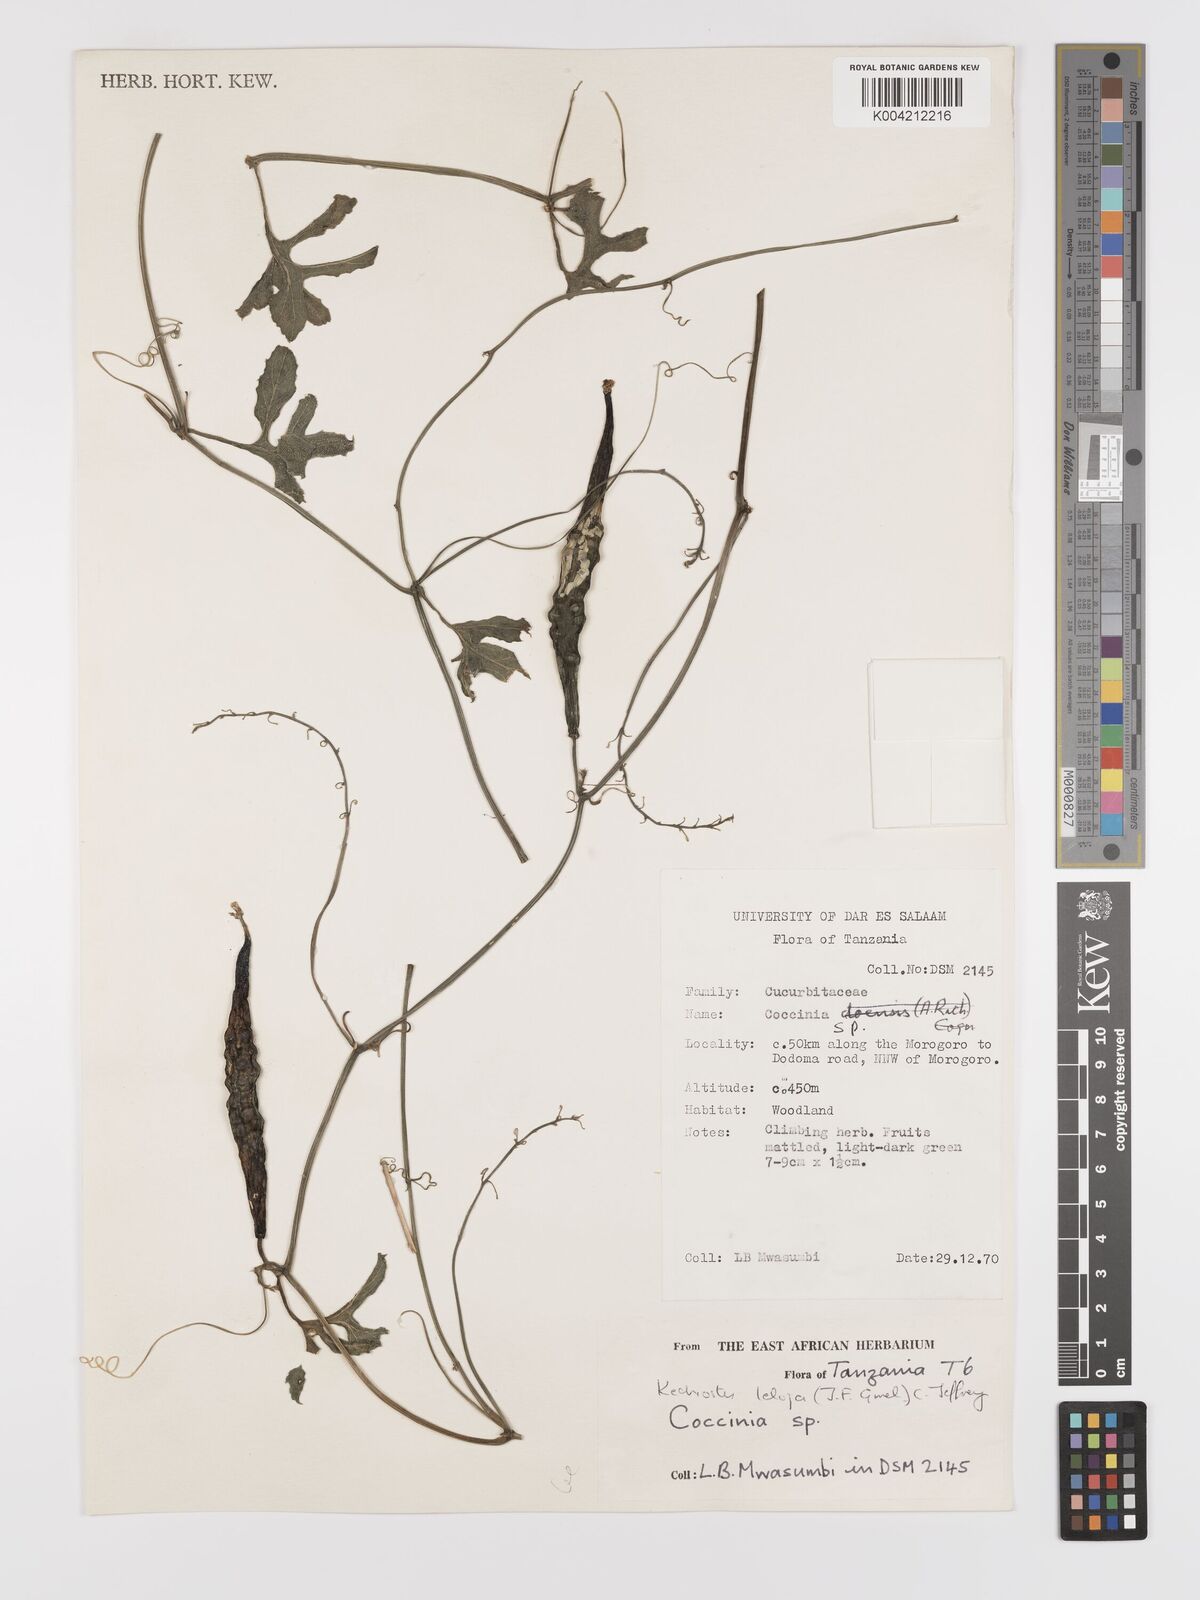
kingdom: Plantae
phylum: Tracheophyta
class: Magnoliopsida
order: Cucurbitales
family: Cucurbitaceae
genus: Kedrostis
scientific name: Kedrostis abdallae
